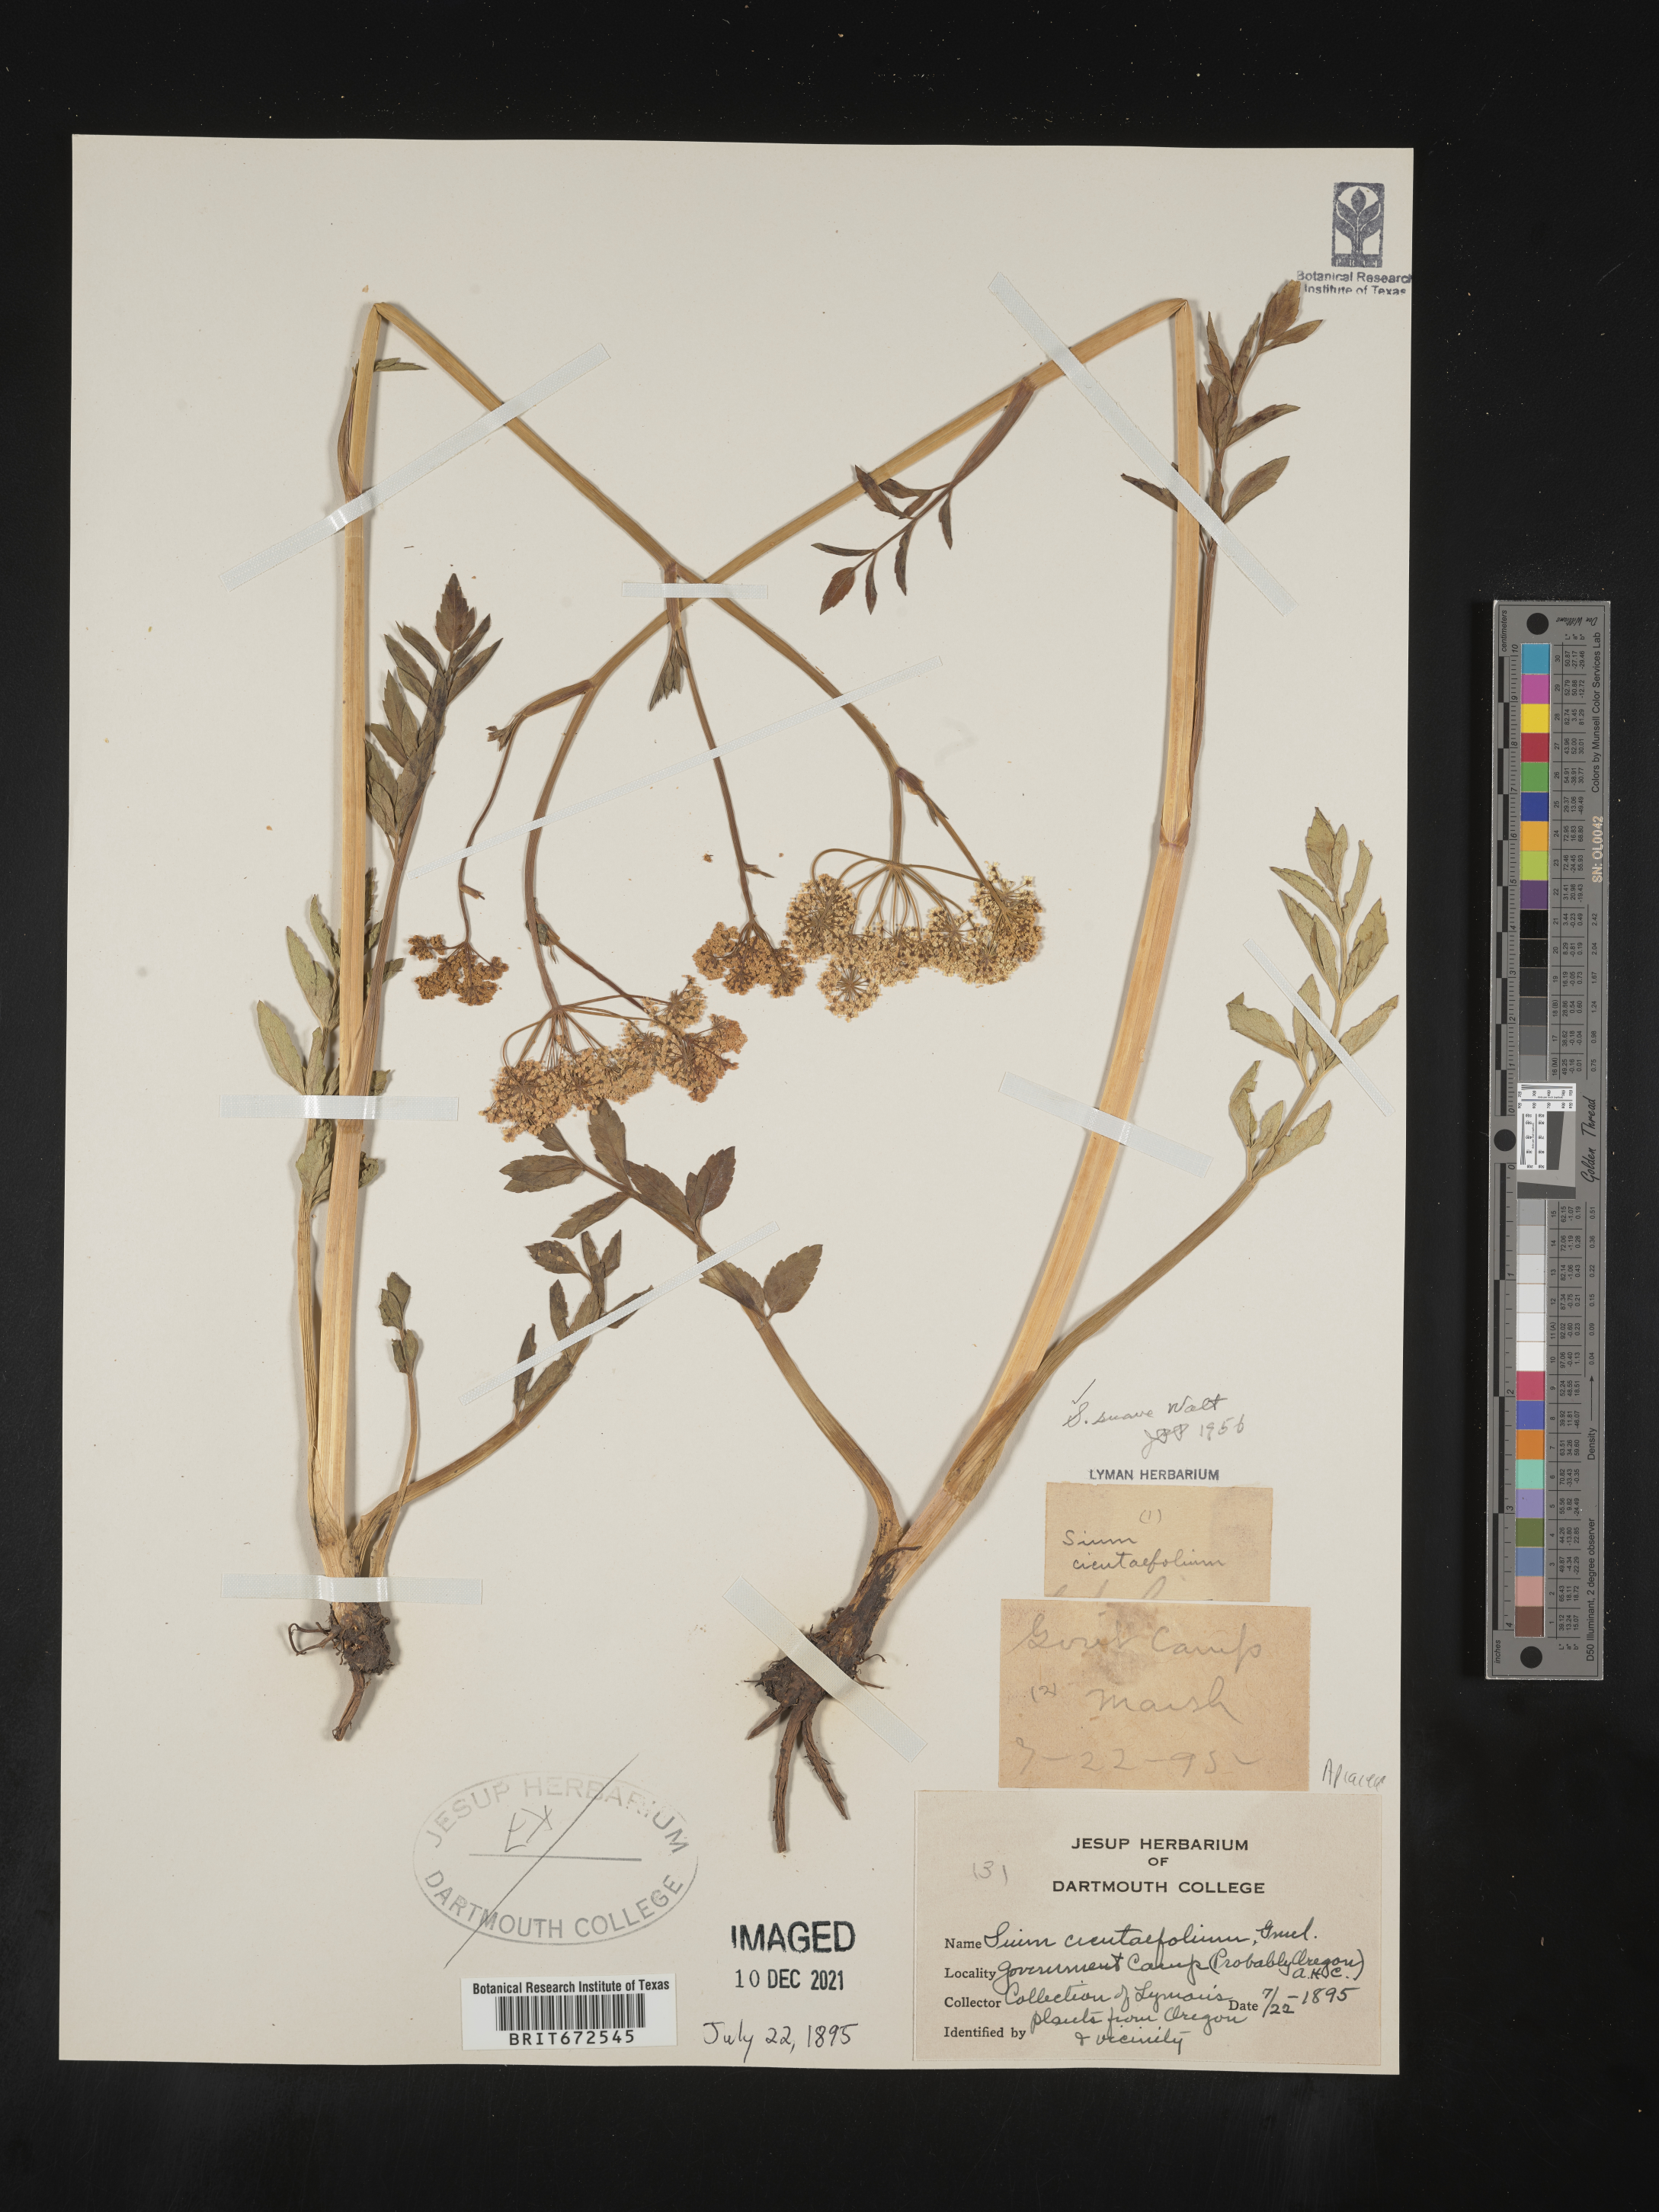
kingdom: Plantae
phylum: Tracheophyta
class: Magnoliopsida
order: Apiales
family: Apiaceae
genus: Sium
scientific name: Sium suave
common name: Hemlock water-parsnip
